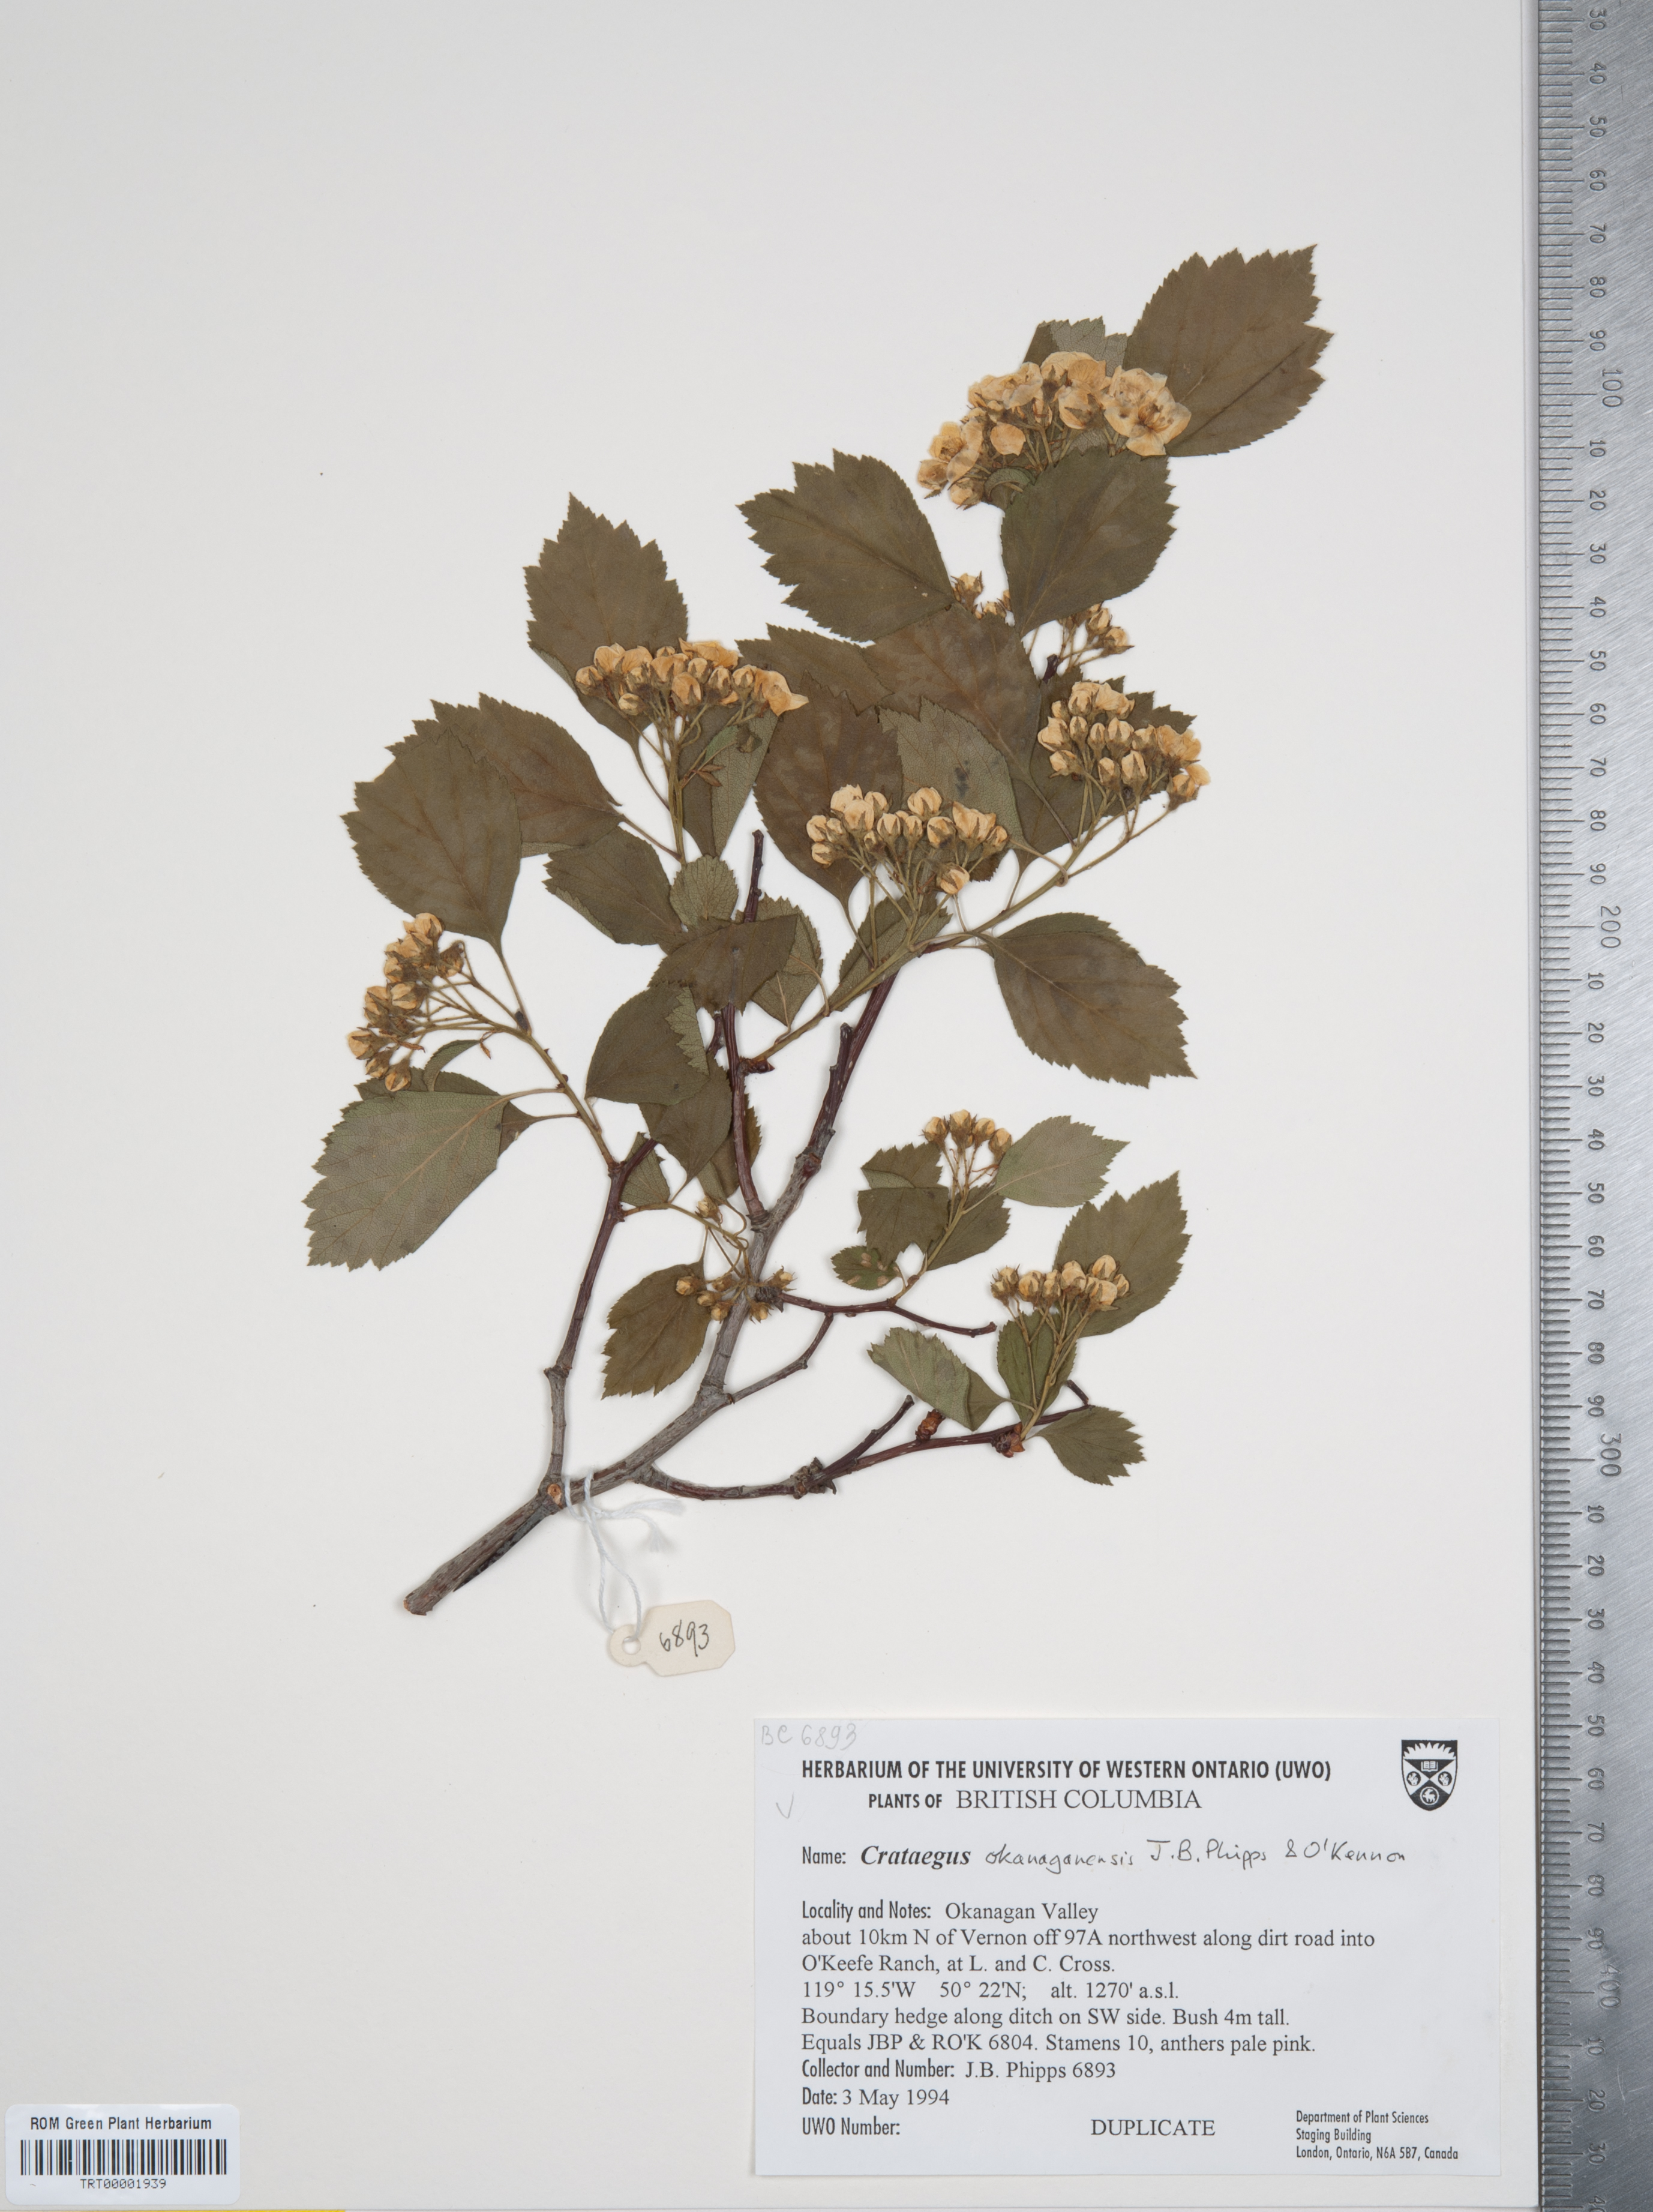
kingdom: Plantae
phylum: Tracheophyta
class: Magnoliopsida
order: Rosales
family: Rosaceae
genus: Crataegus
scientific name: Crataegus okanaganensis
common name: Okanagan valley hawthorn
